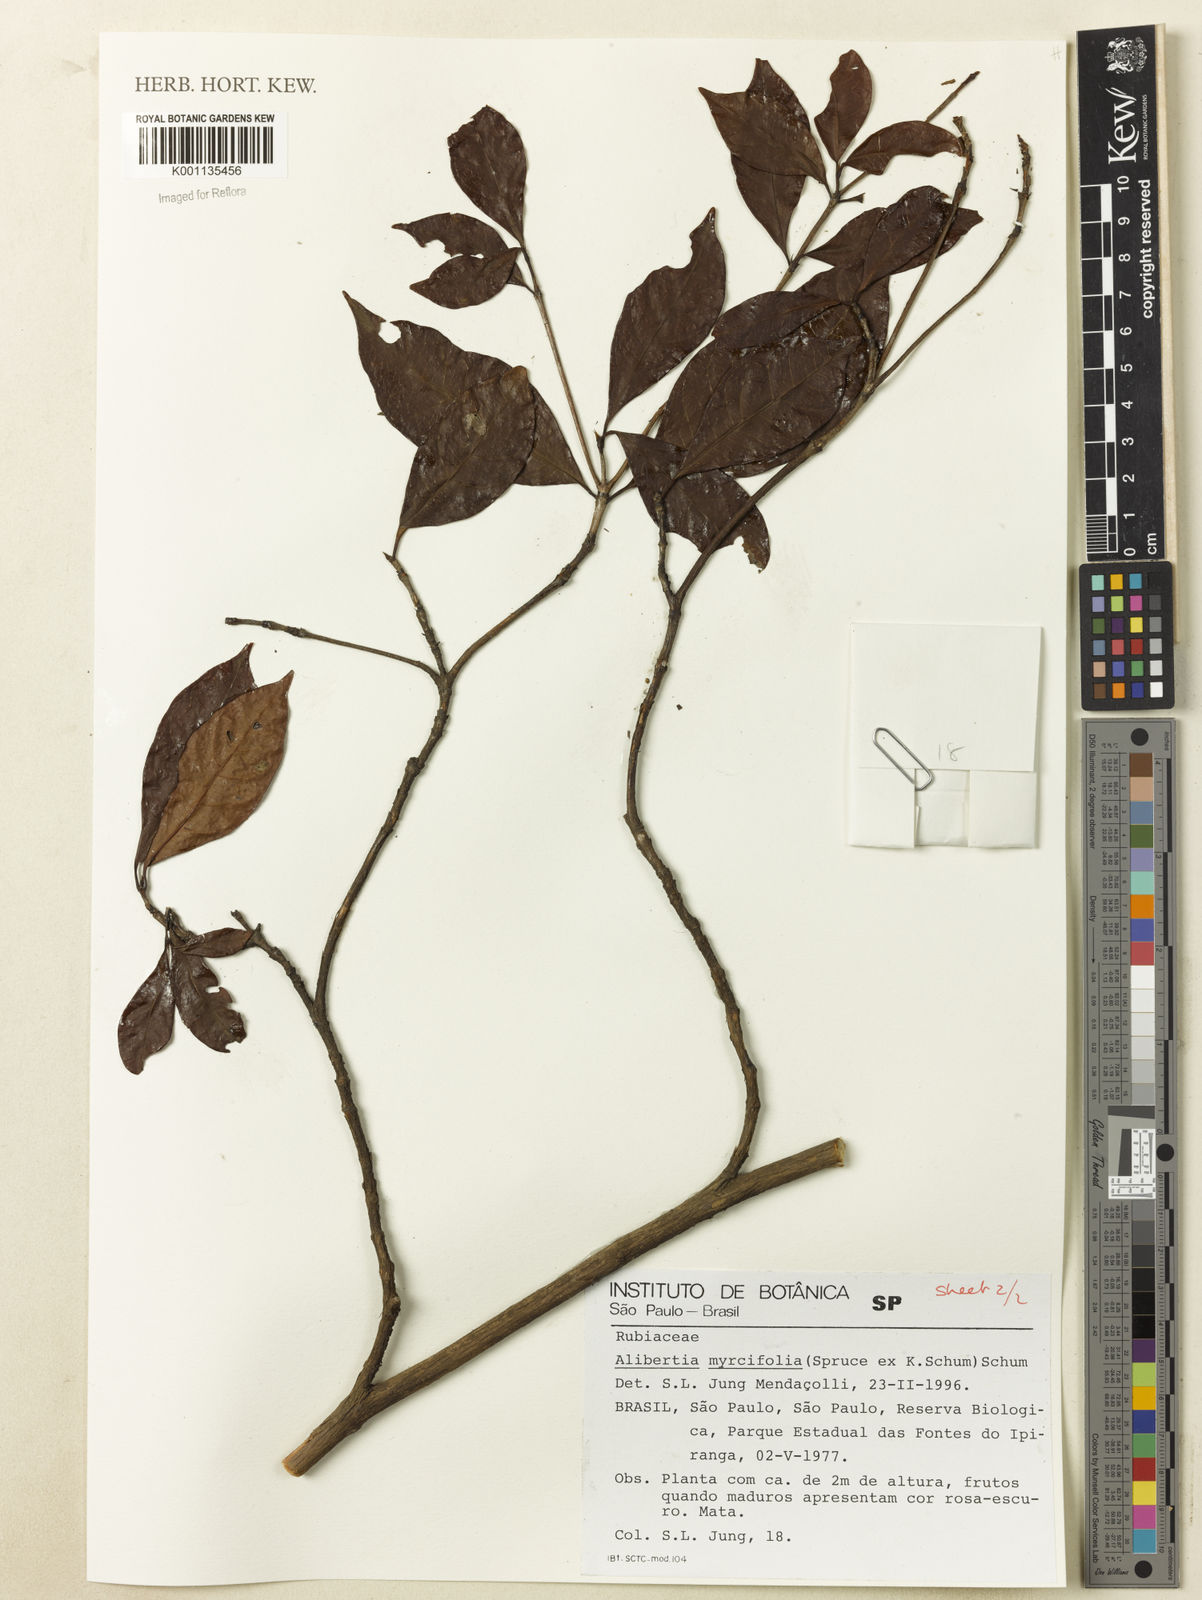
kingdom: Plantae
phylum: Tracheophyta
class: Magnoliopsida
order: Gentianales
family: Rubiaceae
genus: Cordiera
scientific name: Cordiera myrciifolia
